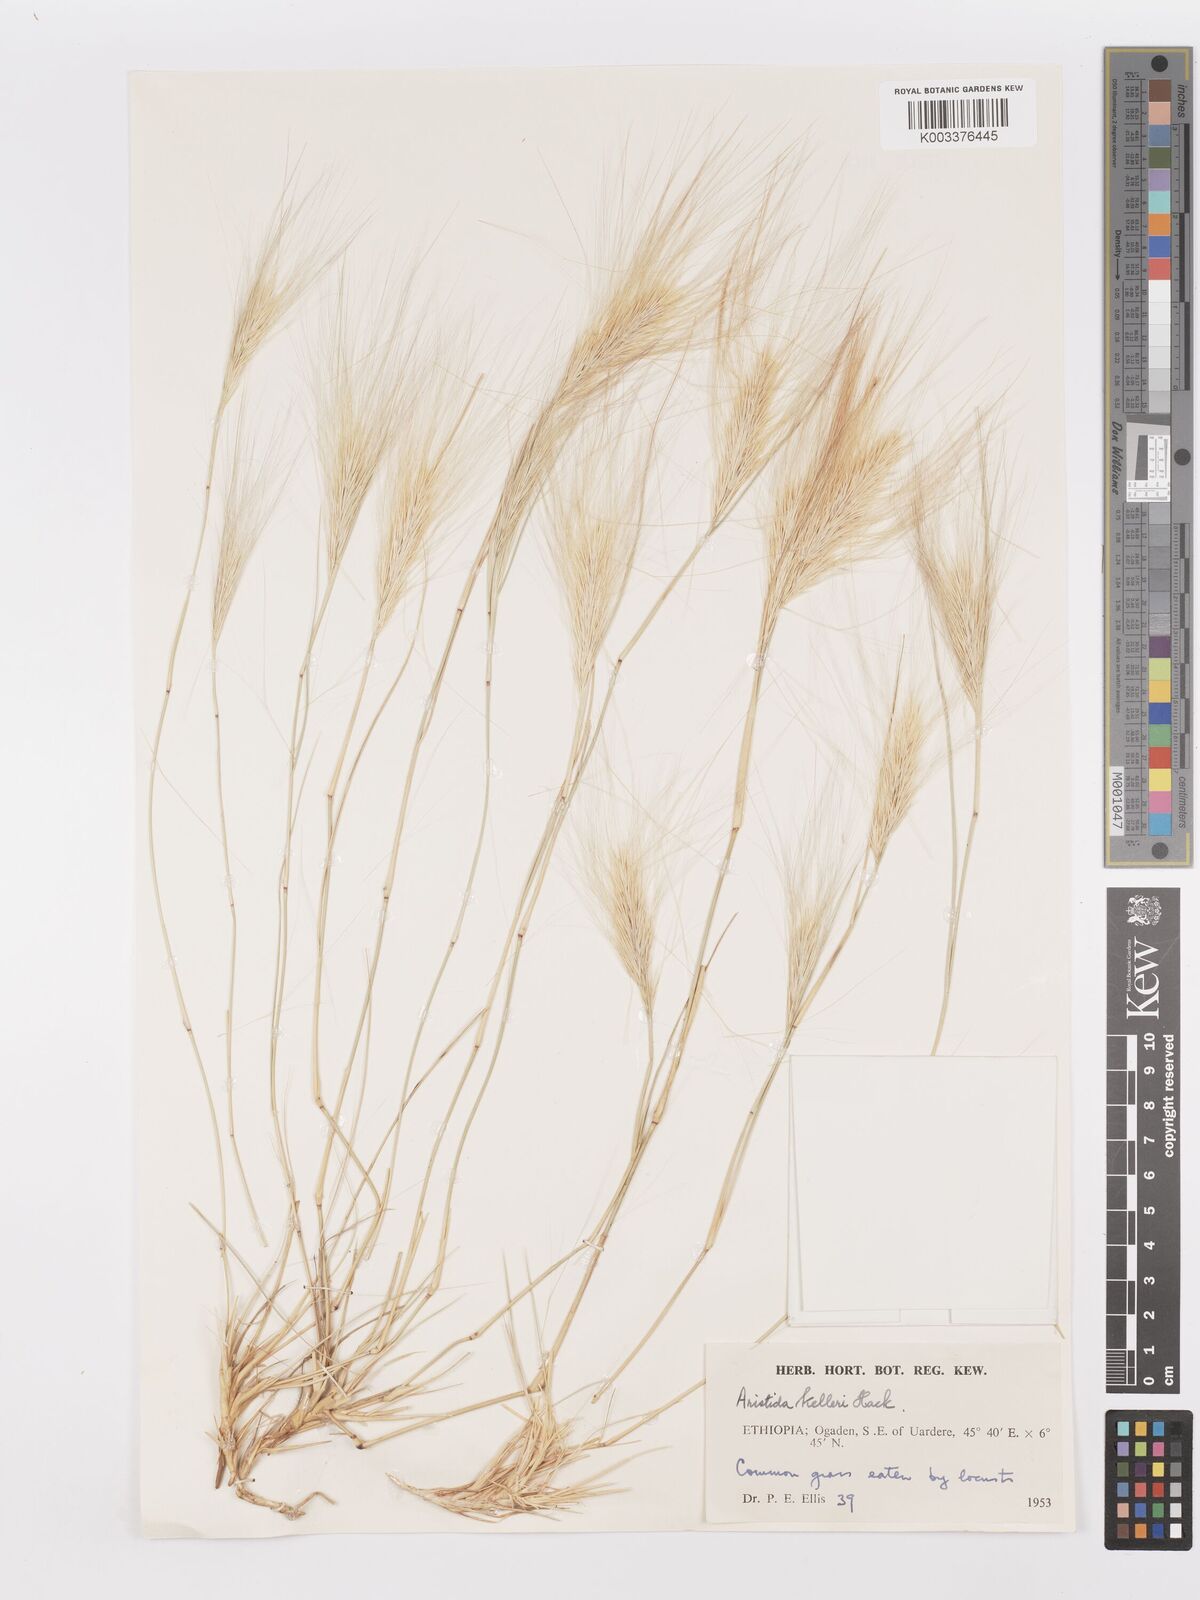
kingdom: Plantae
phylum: Tracheophyta
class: Liliopsida
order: Poales
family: Poaceae
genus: Aristida
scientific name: Aristida kelleri
